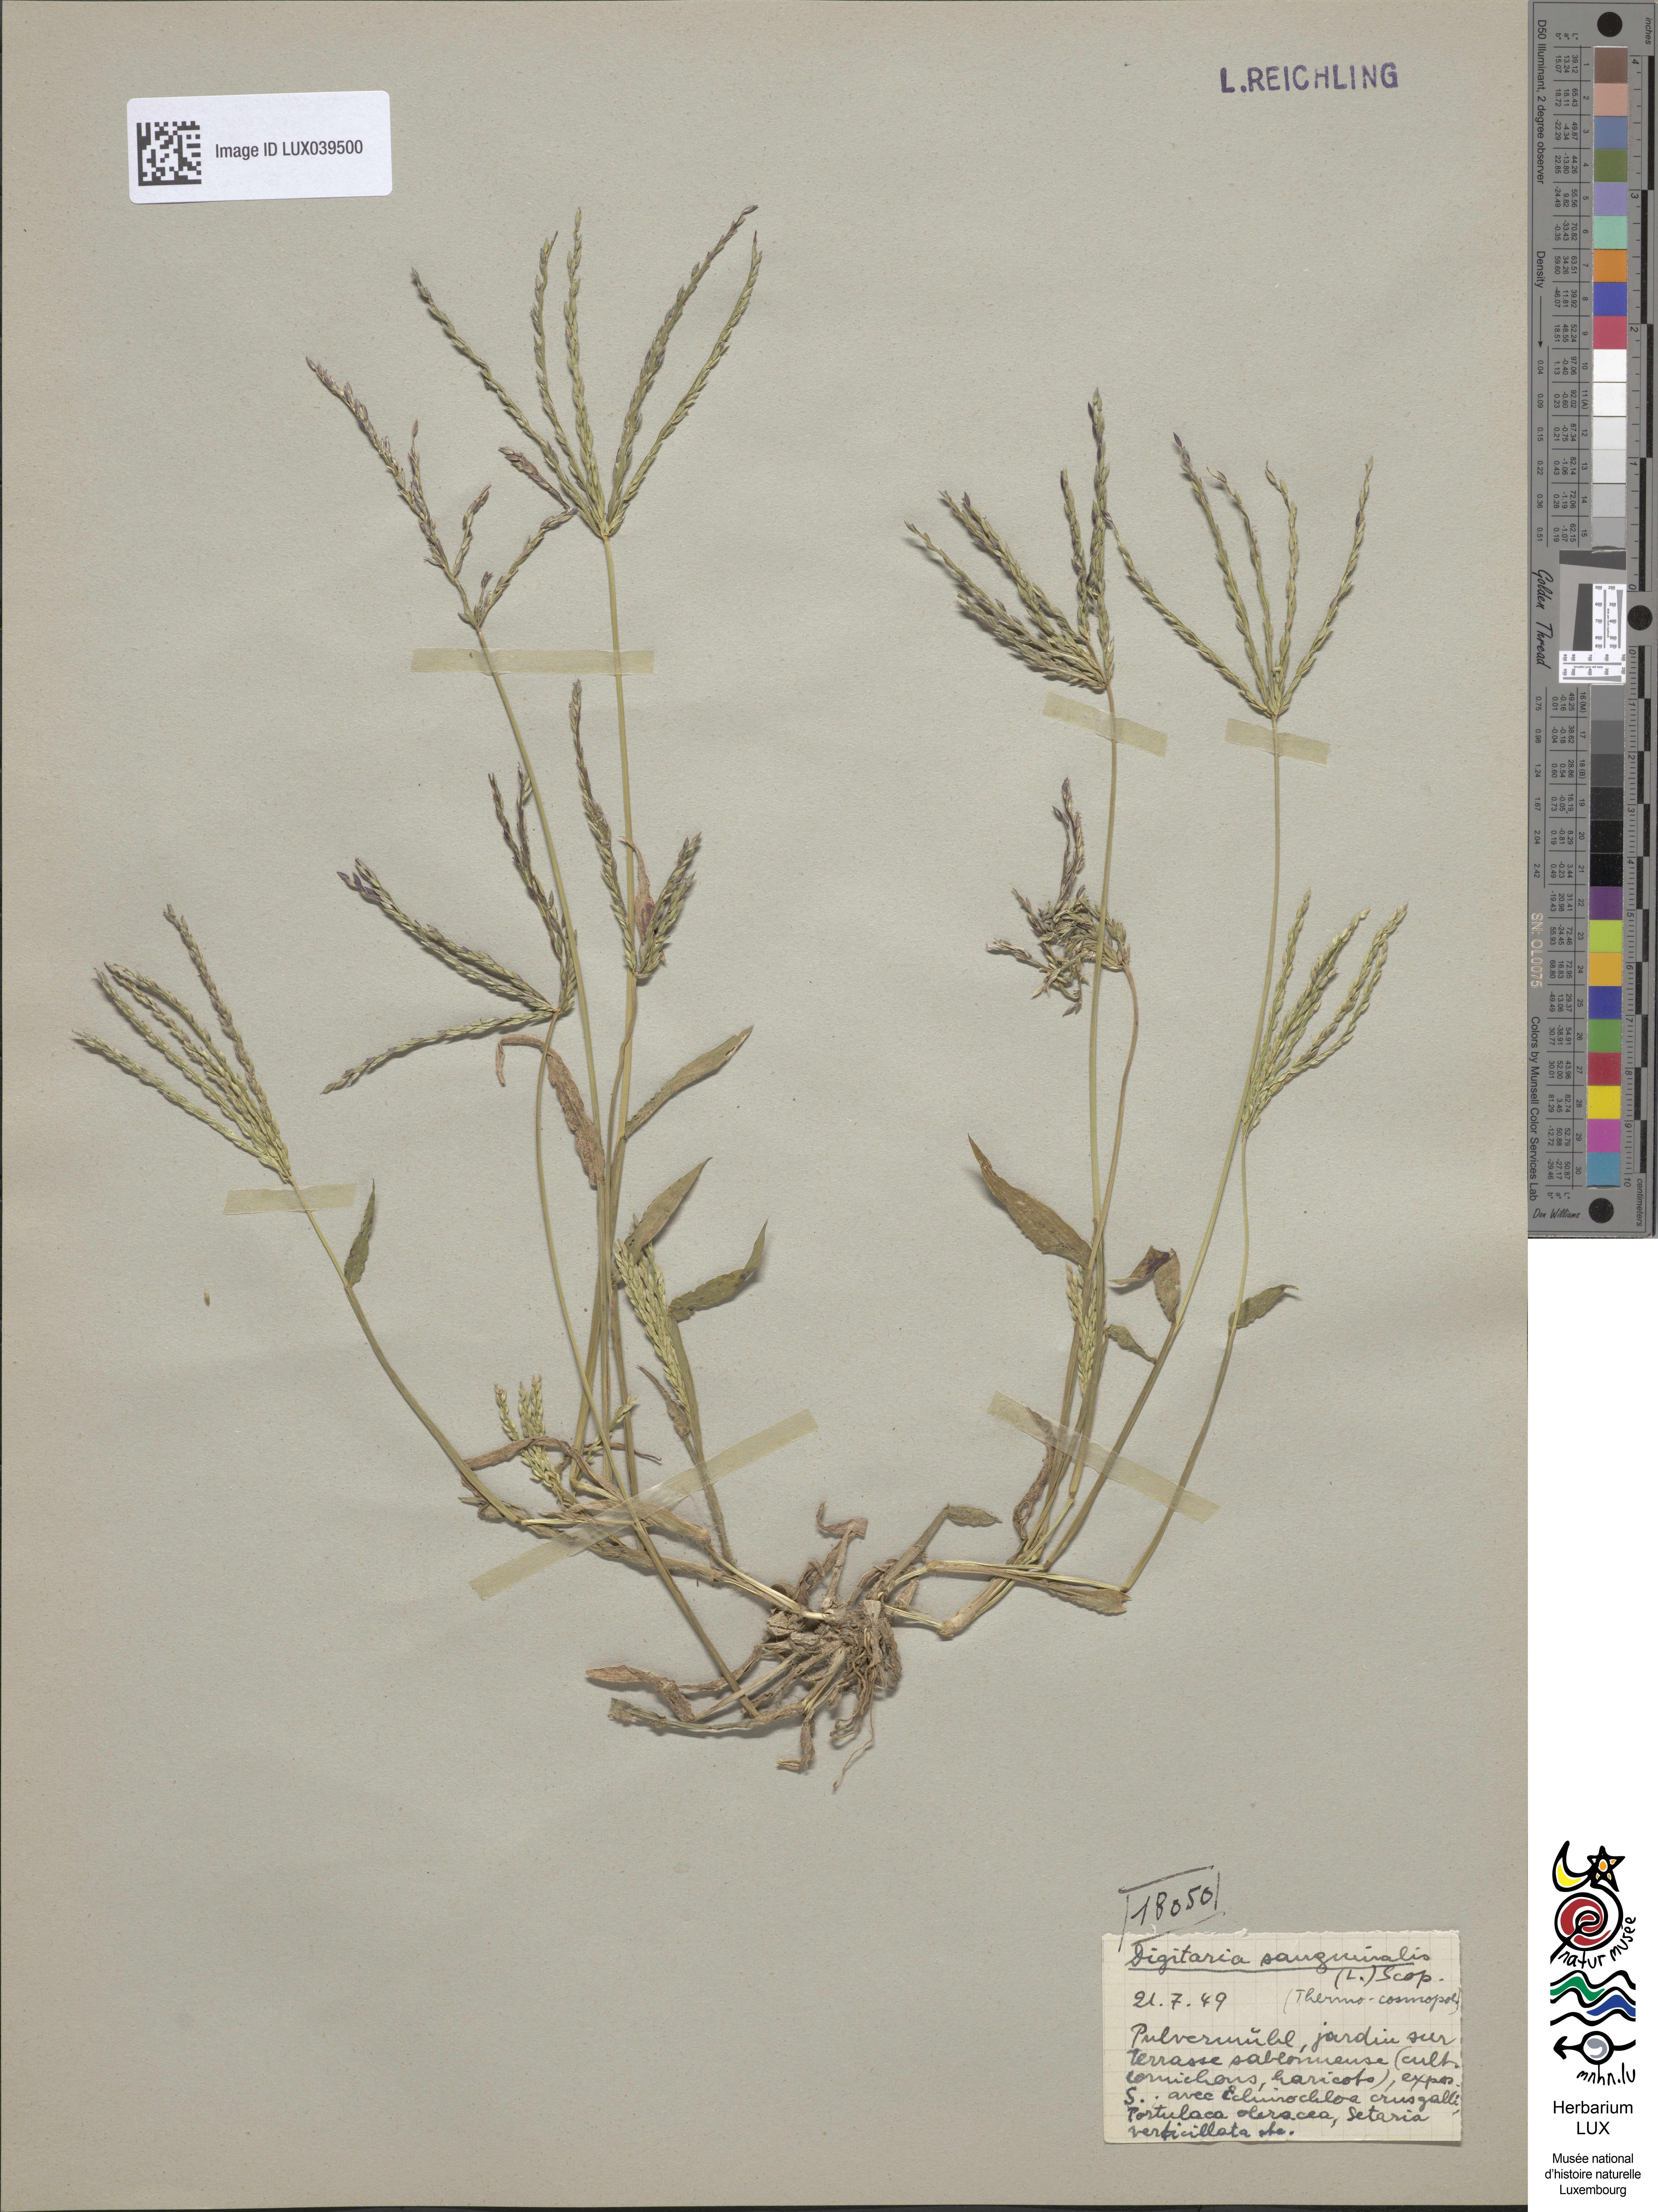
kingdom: Plantae
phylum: Tracheophyta
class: Liliopsida
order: Poales
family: Poaceae
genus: Digitaria
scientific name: Digitaria sanguinalis
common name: Hairy crabgrass
